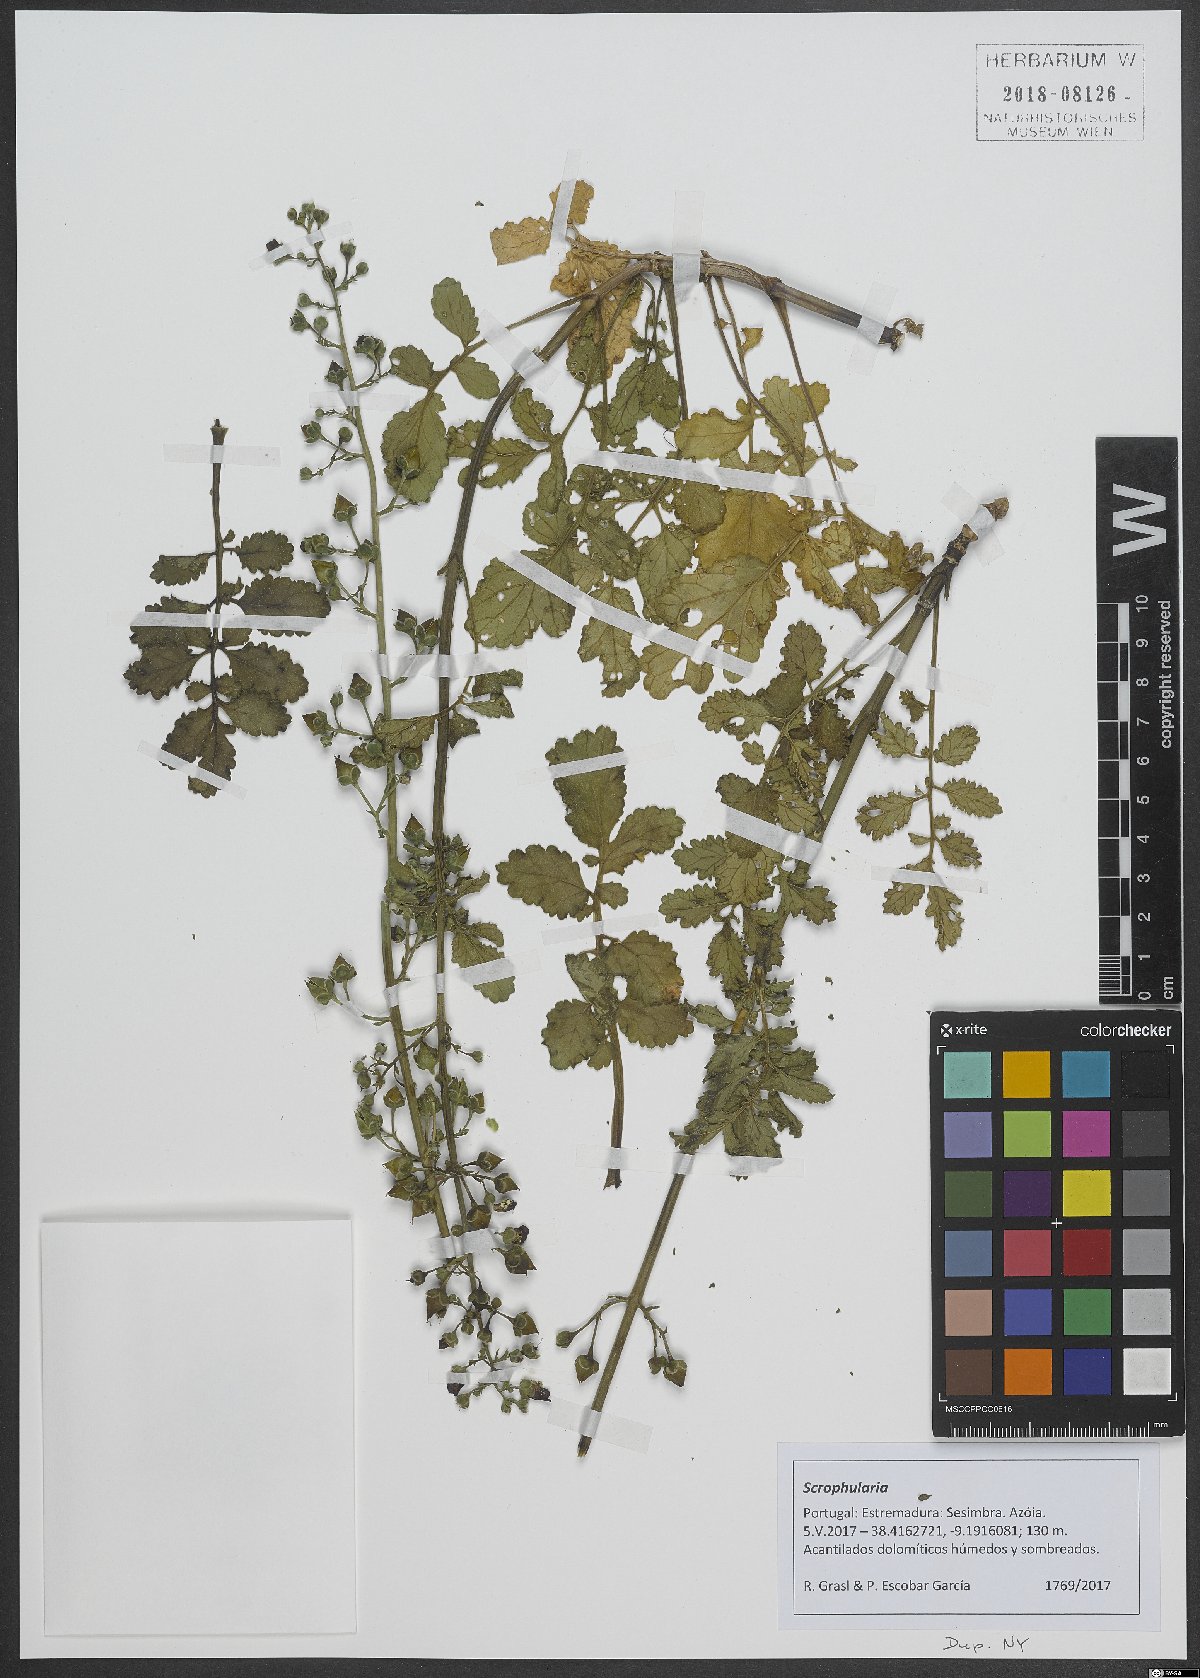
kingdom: Plantae
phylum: Tracheophyta
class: Magnoliopsida
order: Lamiales
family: Scrophulariaceae
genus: Scrophularia
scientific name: Scrophularia
